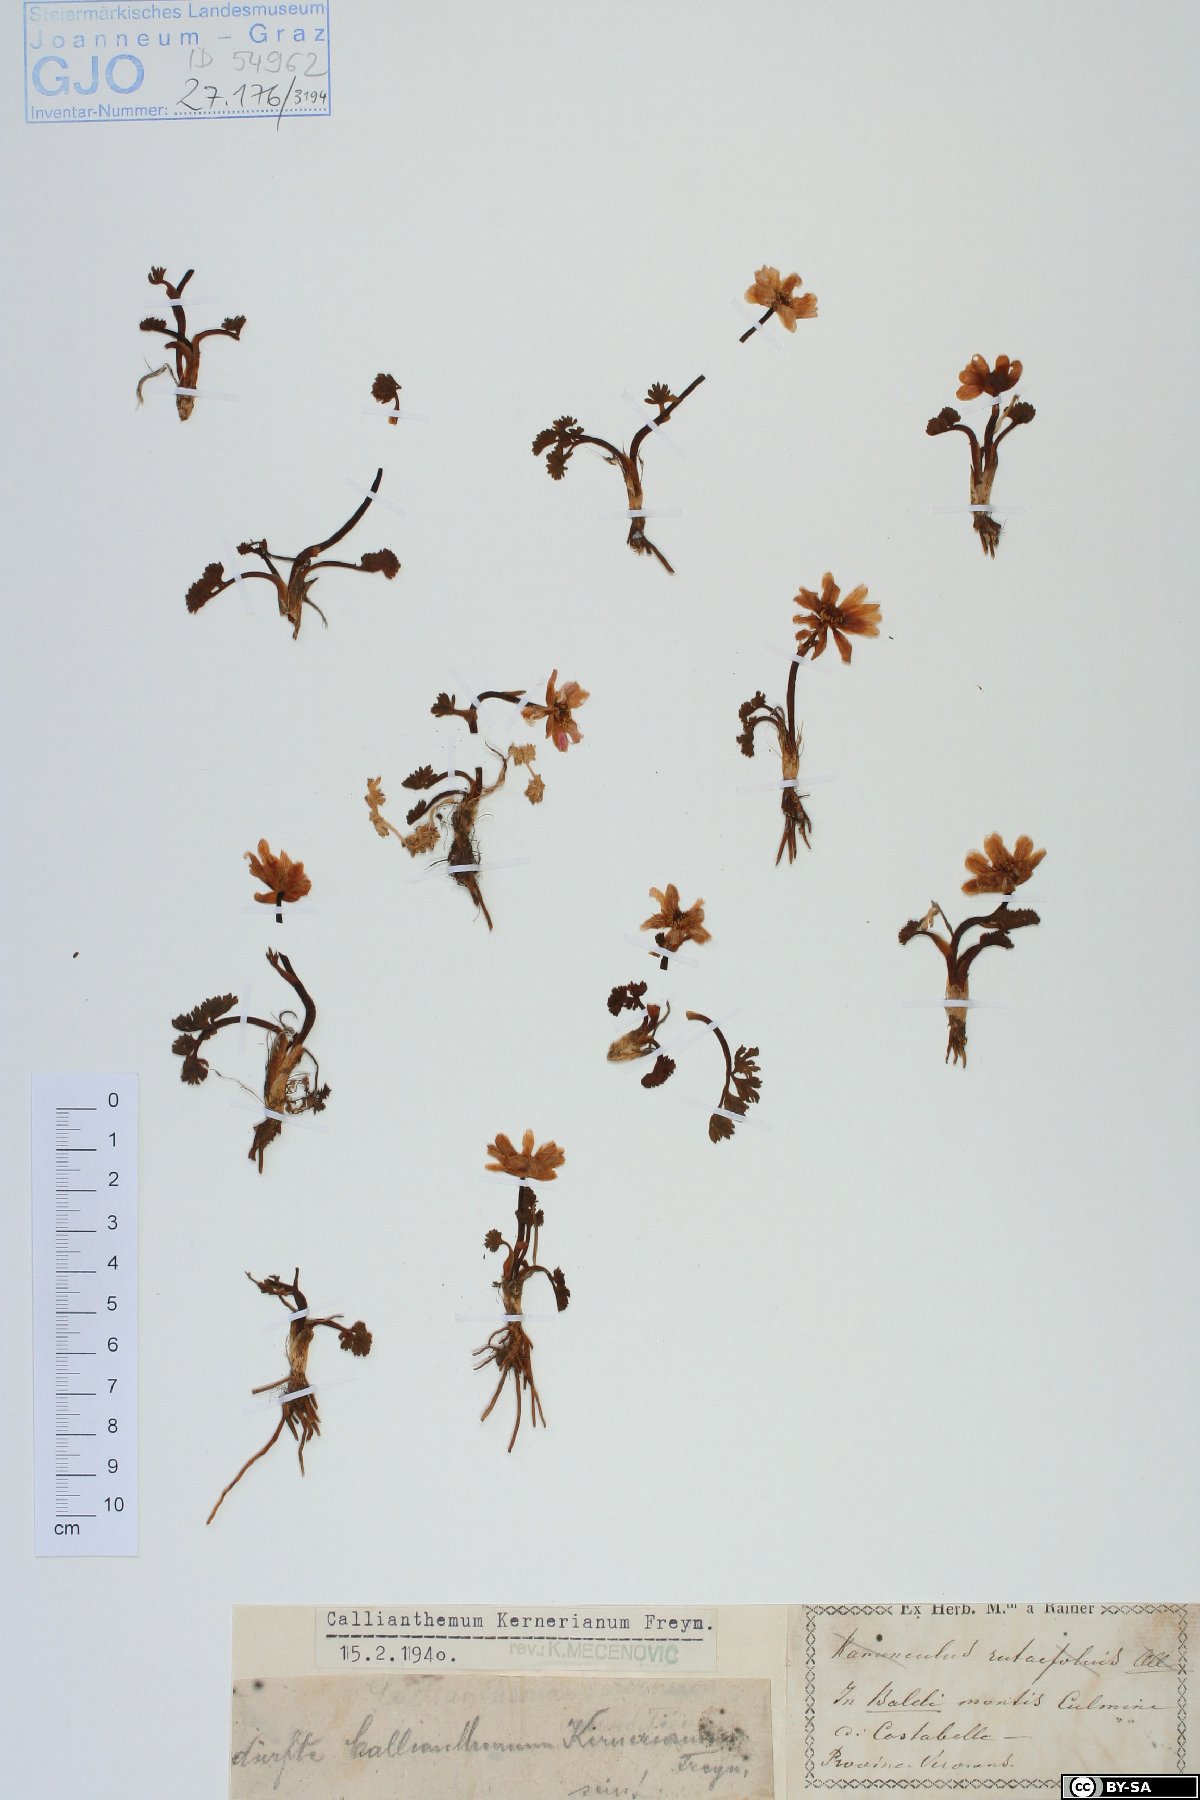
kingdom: Plantae
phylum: Tracheophyta
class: Magnoliopsida
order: Ranunculales
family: Ranunculaceae
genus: Callianthemum
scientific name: Callianthemum kernerianum
